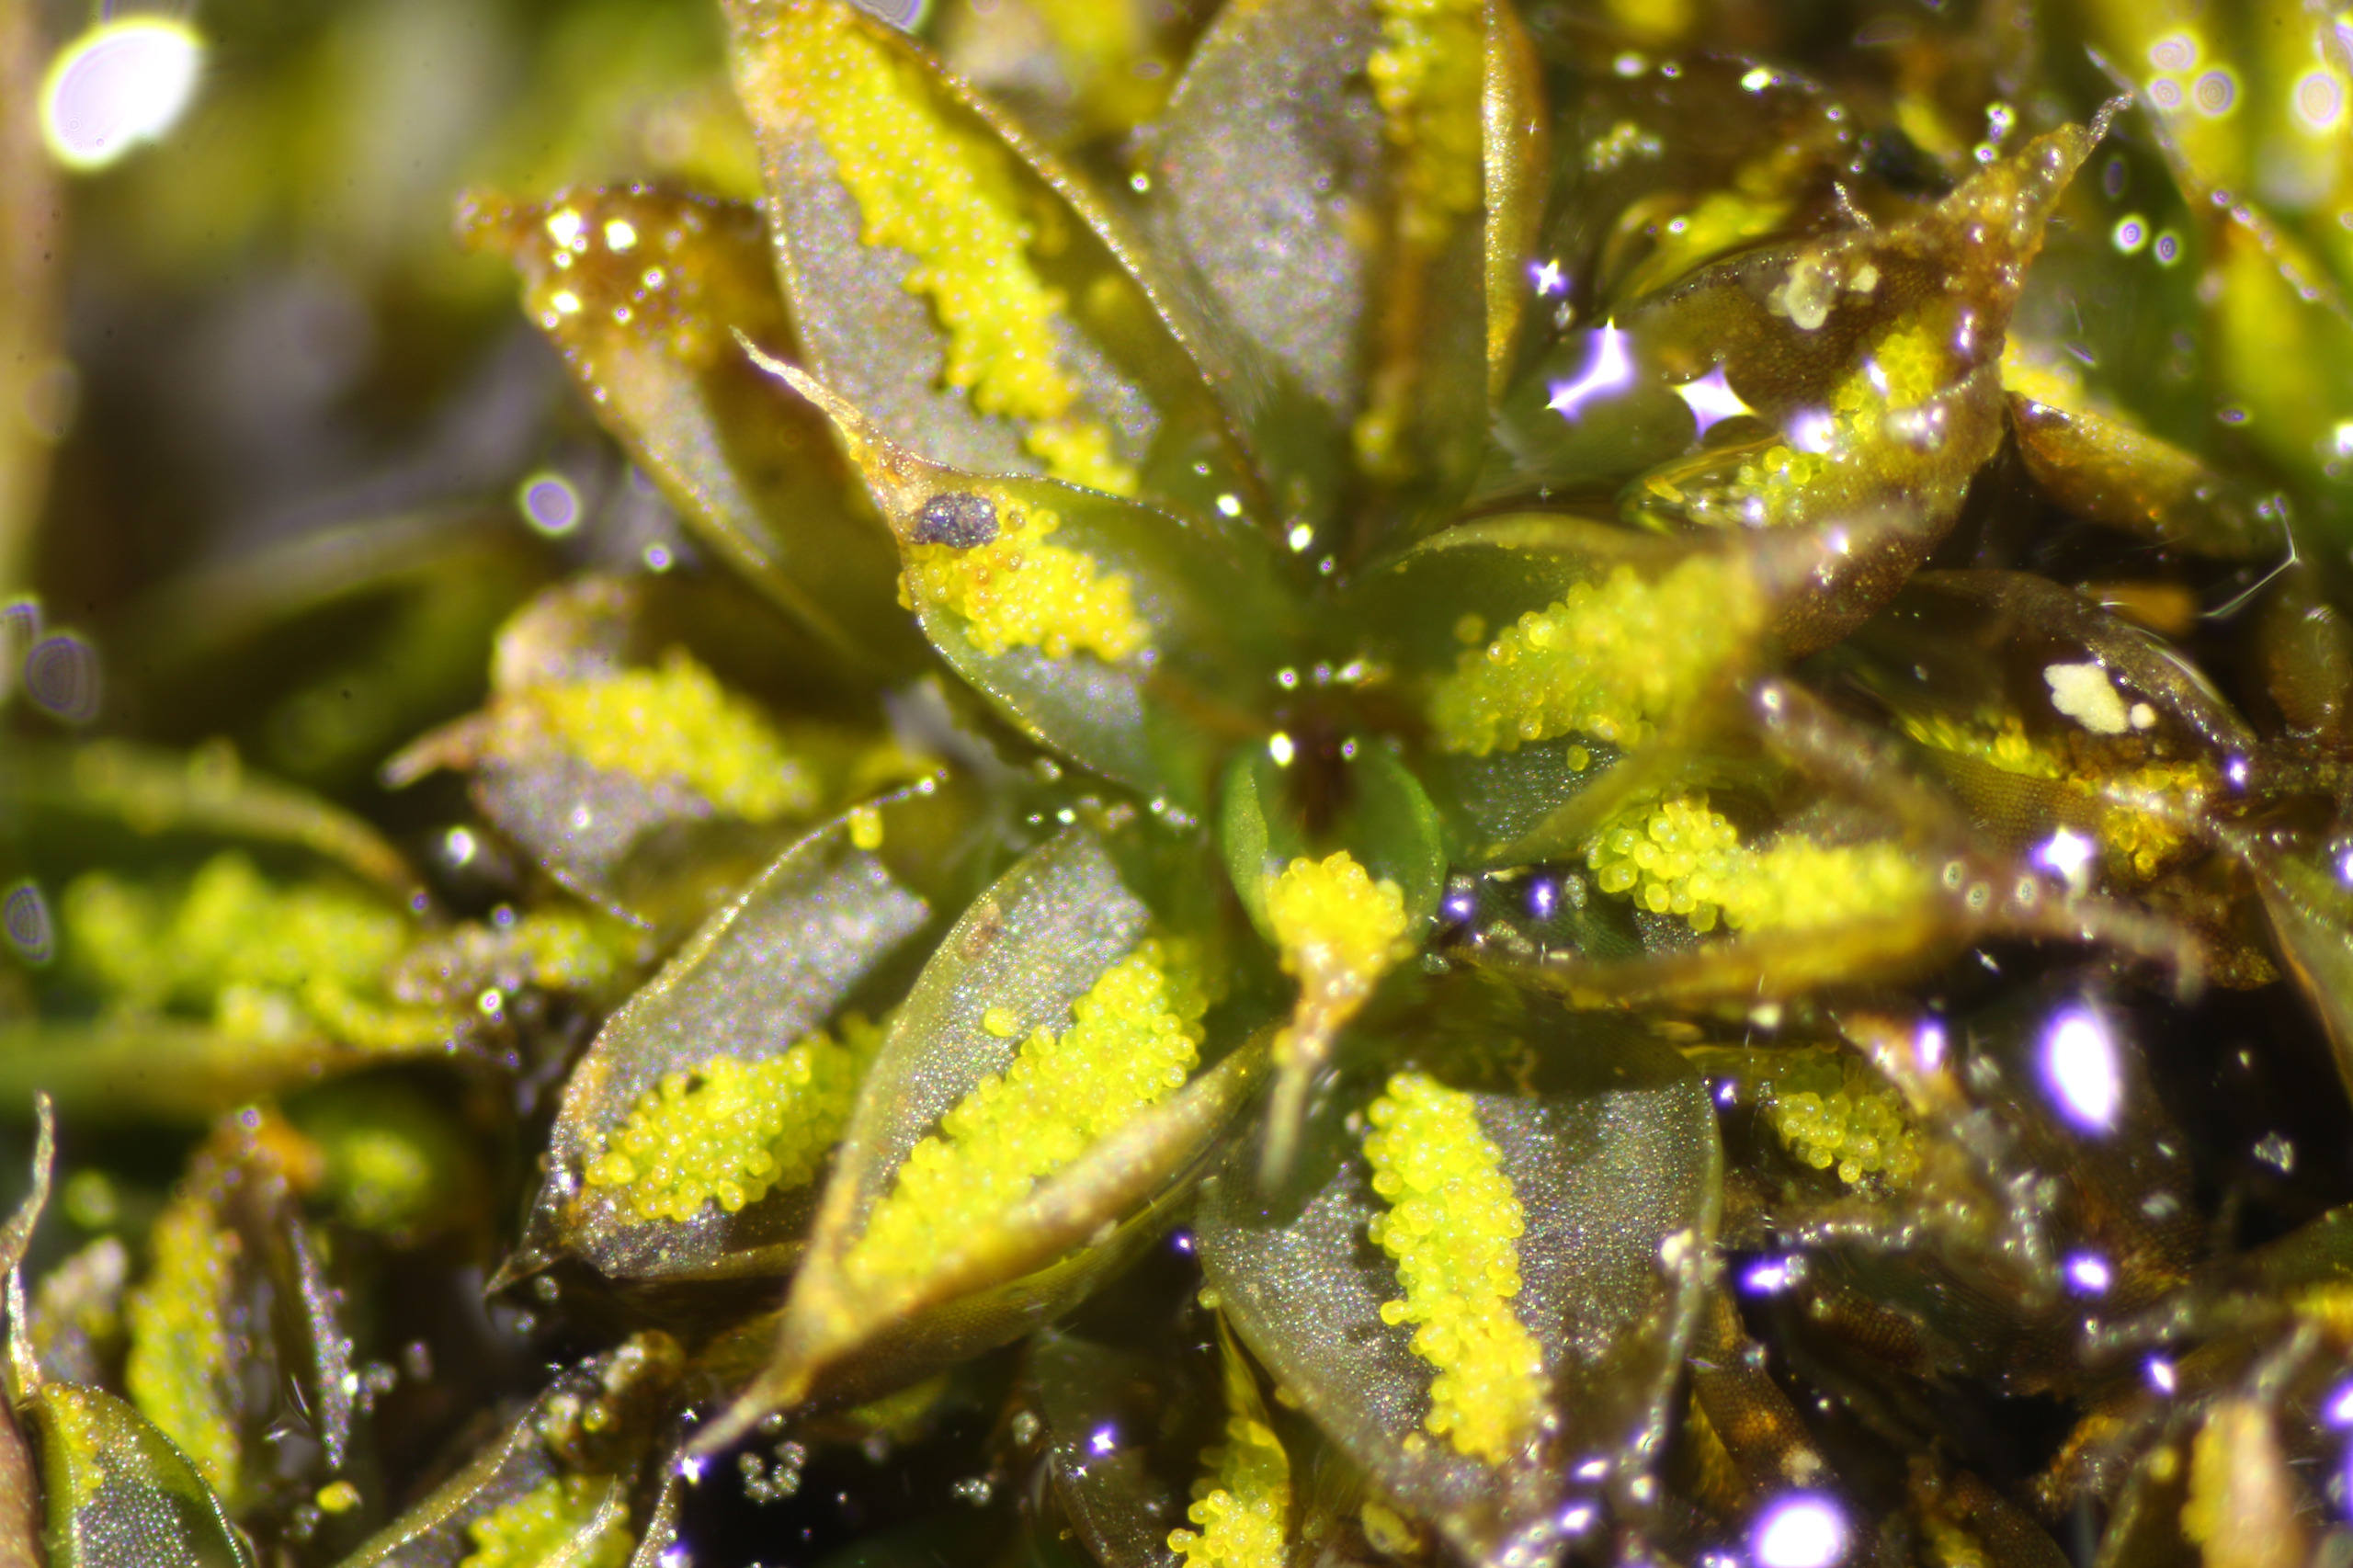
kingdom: Plantae
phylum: Bryophyta
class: Bryopsida
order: Pottiales
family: Pottiaceae
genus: Syntrichia
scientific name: Syntrichia papillosa
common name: Bark-hårstjerne
